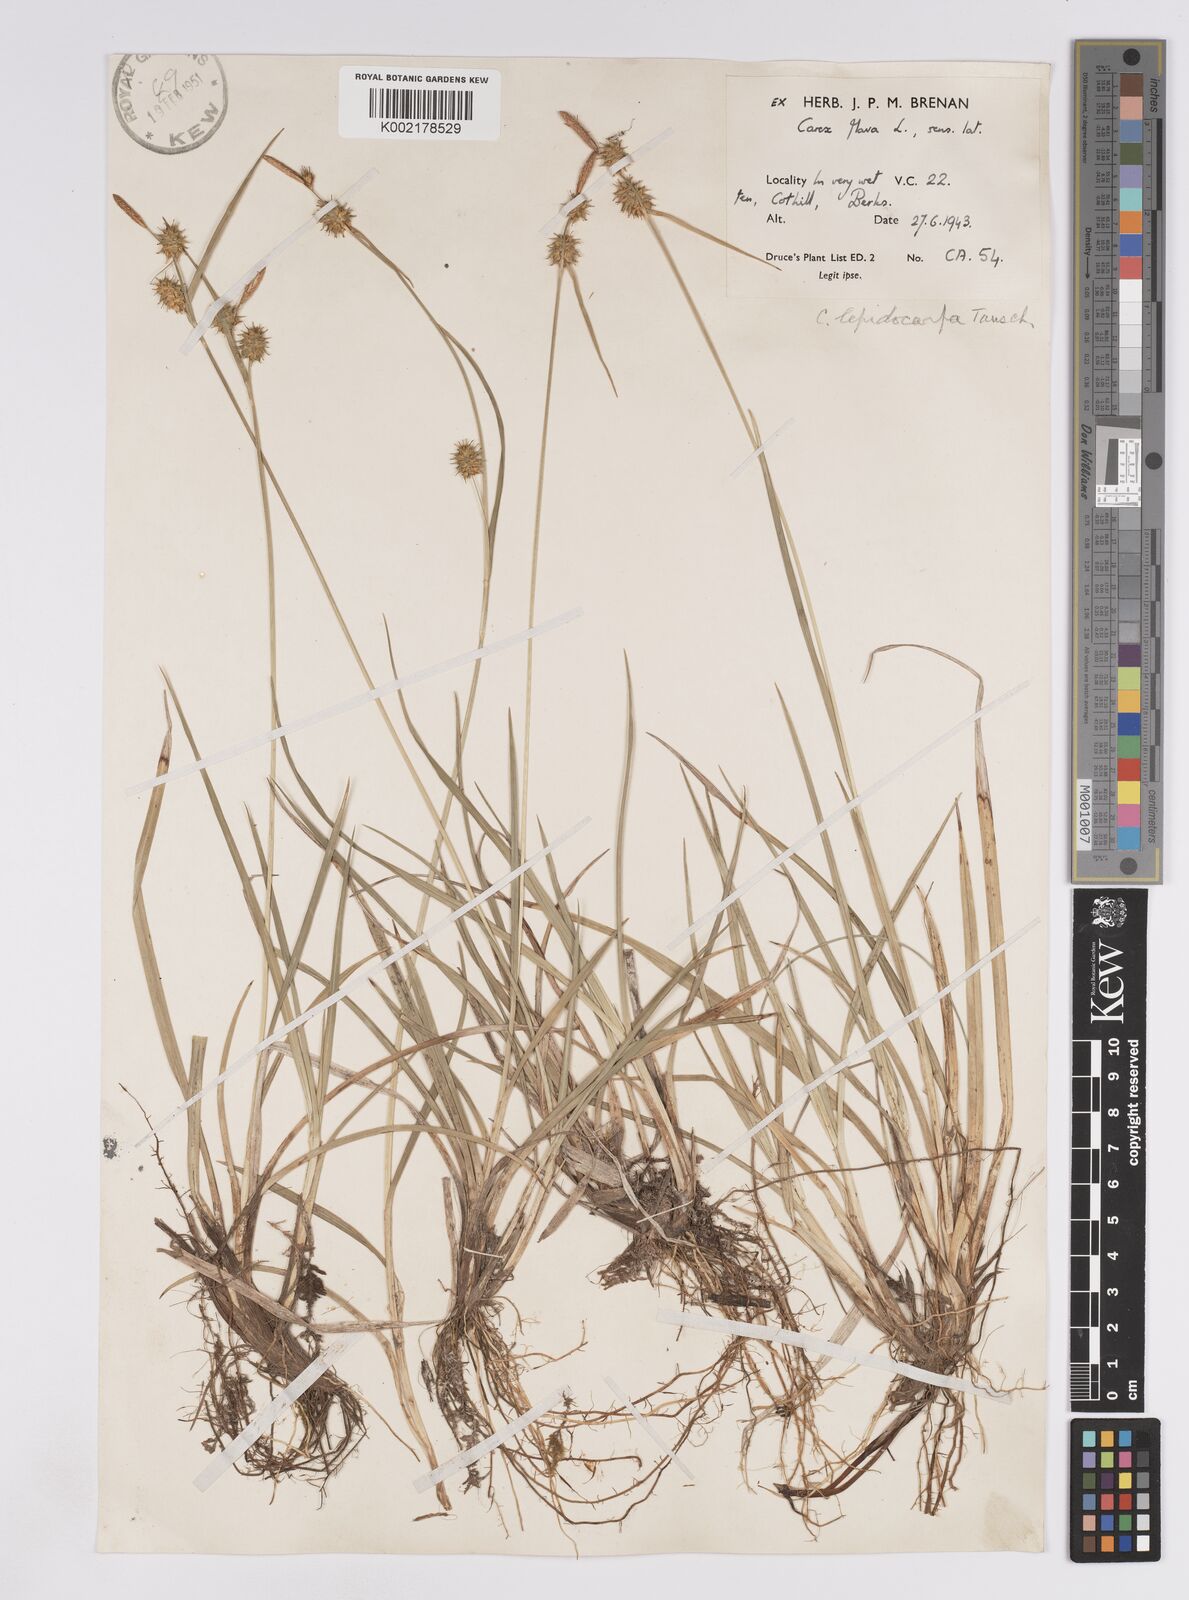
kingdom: Plantae
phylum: Tracheophyta
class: Liliopsida
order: Poales
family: Cyperaceae
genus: Carex
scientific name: Carex lepidocarpa
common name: Long-stalked yellow-sedge
